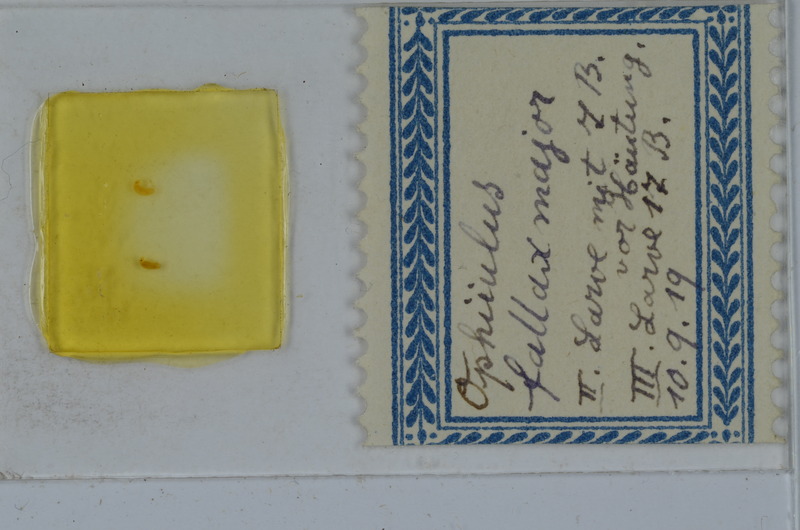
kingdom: Animalia
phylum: Arthropoda
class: Diplopoda
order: Julida
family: Julidae
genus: Ophyiulus
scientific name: Ophyiulus pilosus
